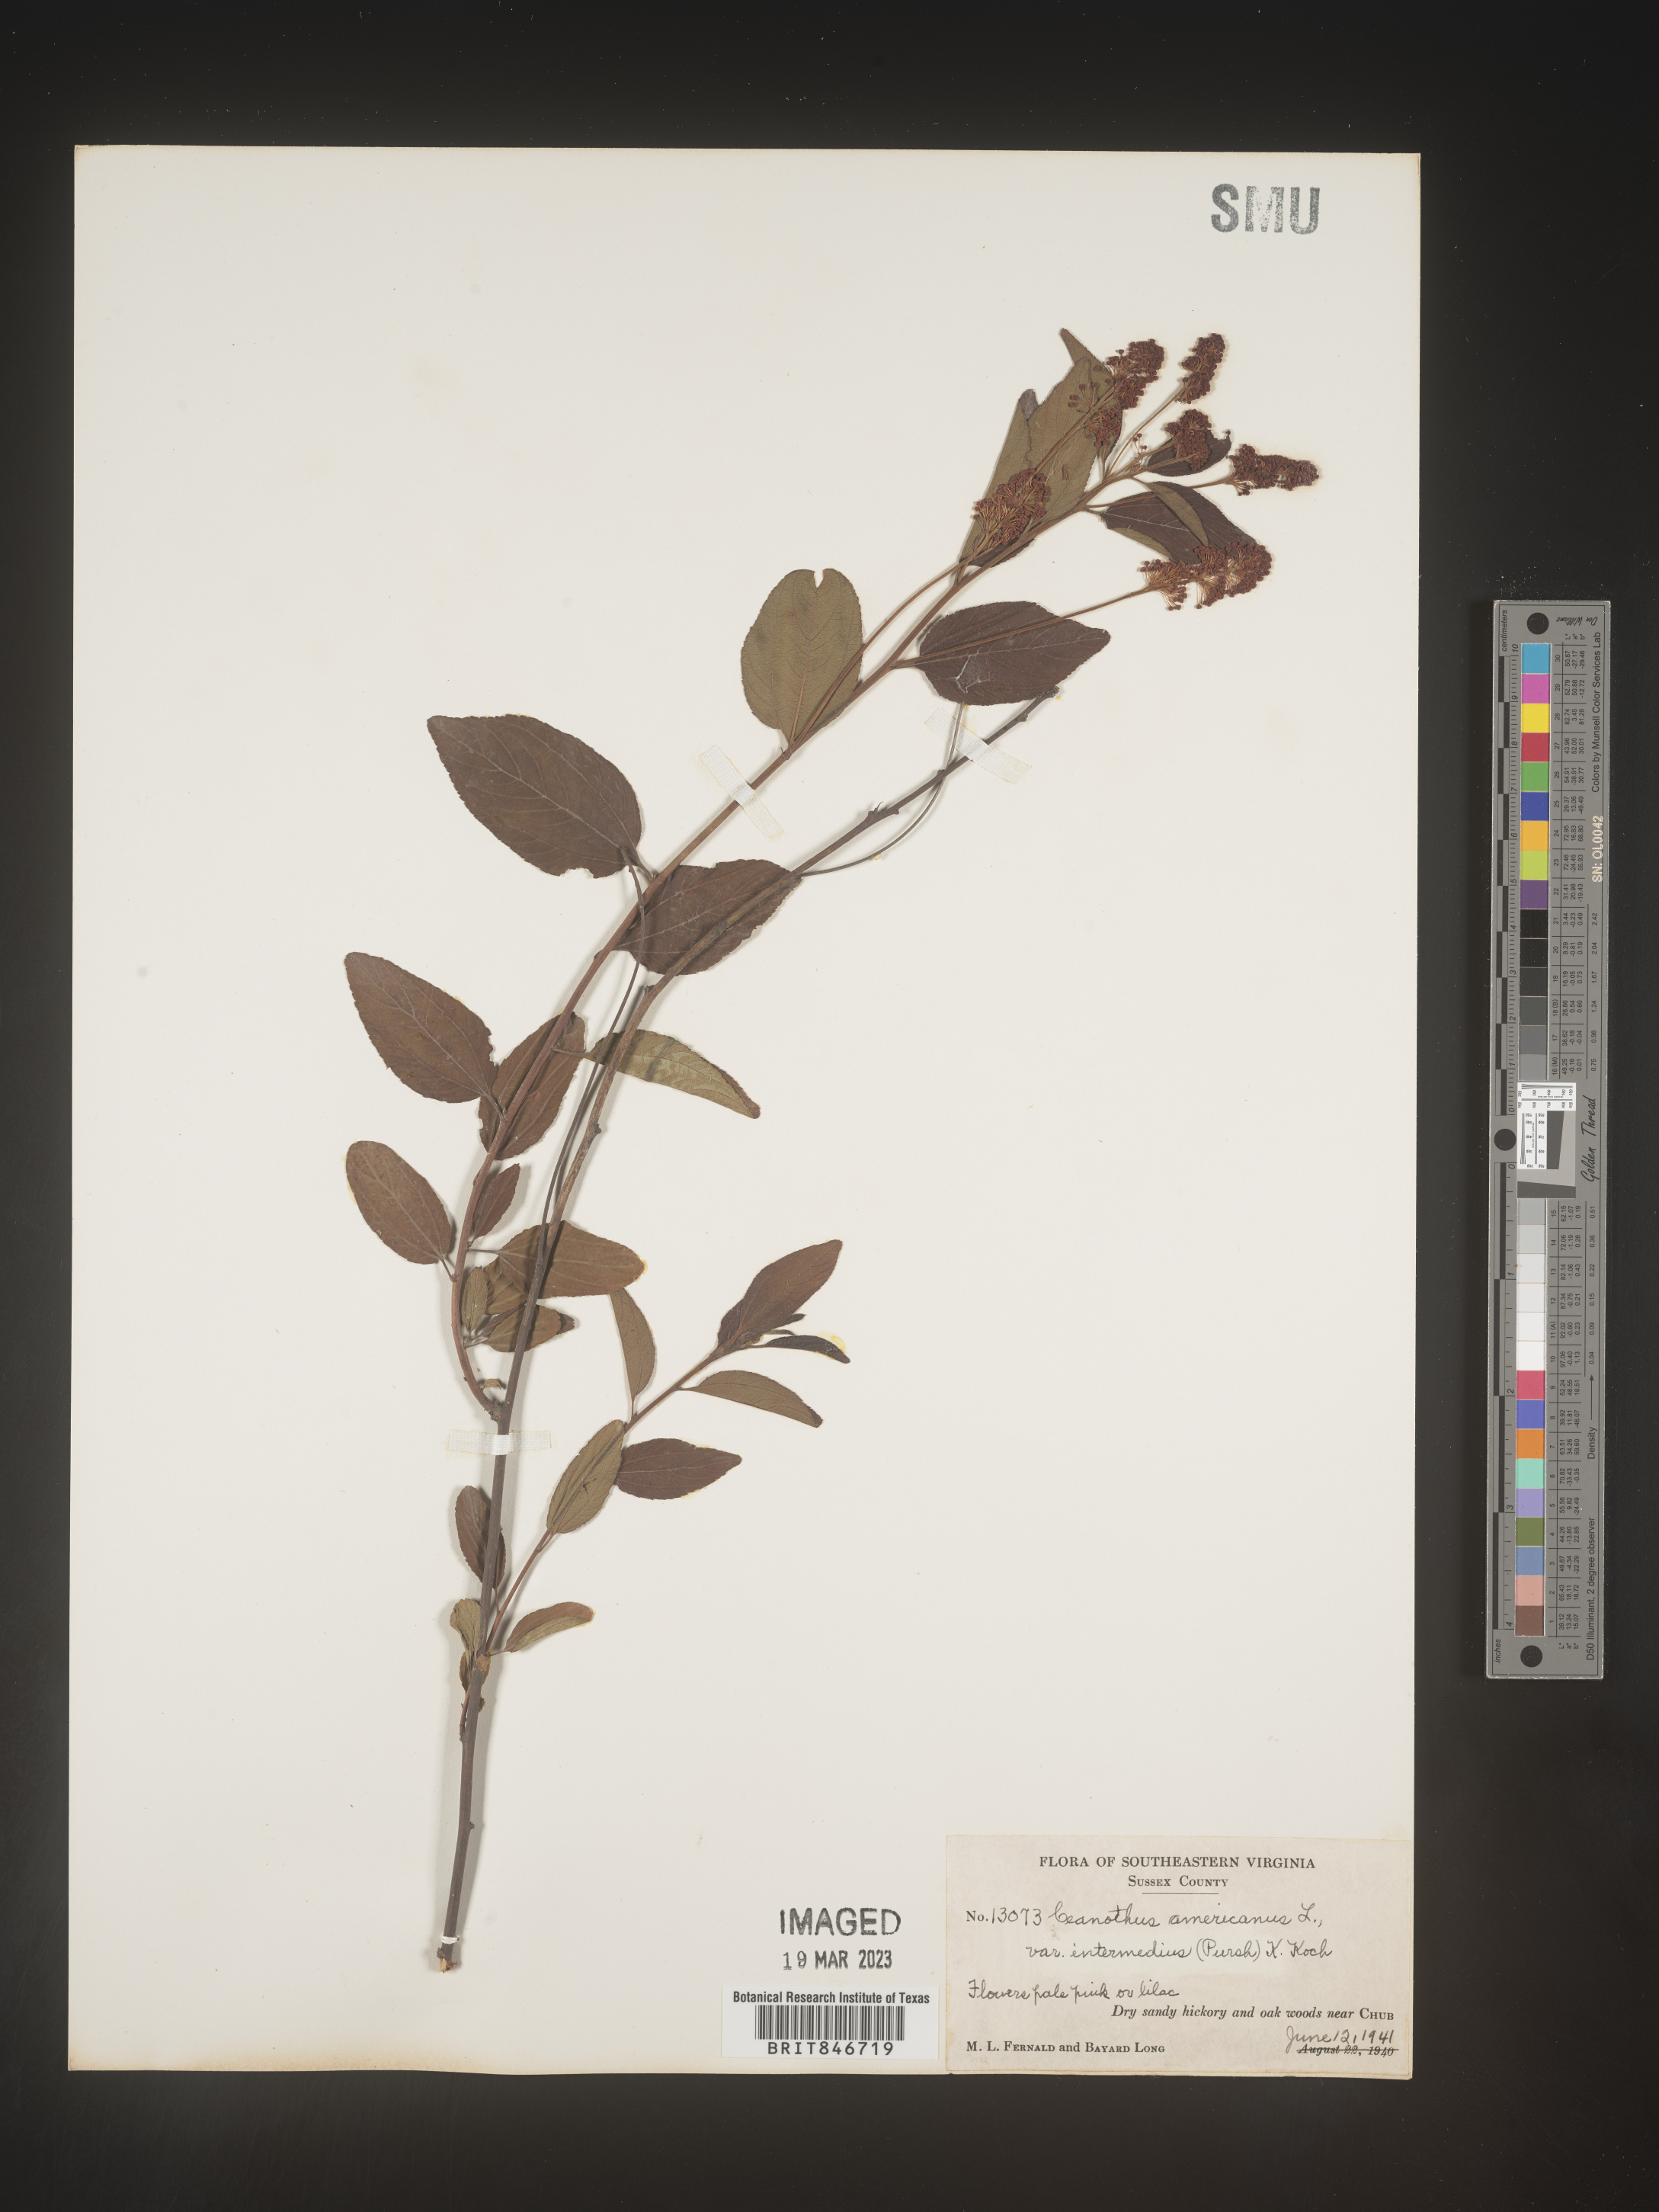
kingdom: Plantae
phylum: Tracheophyta
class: Magnoliopsida
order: Rosales
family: Rhamnaceae
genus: Ceanothus
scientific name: Ceanothus americanus
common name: Redroot
